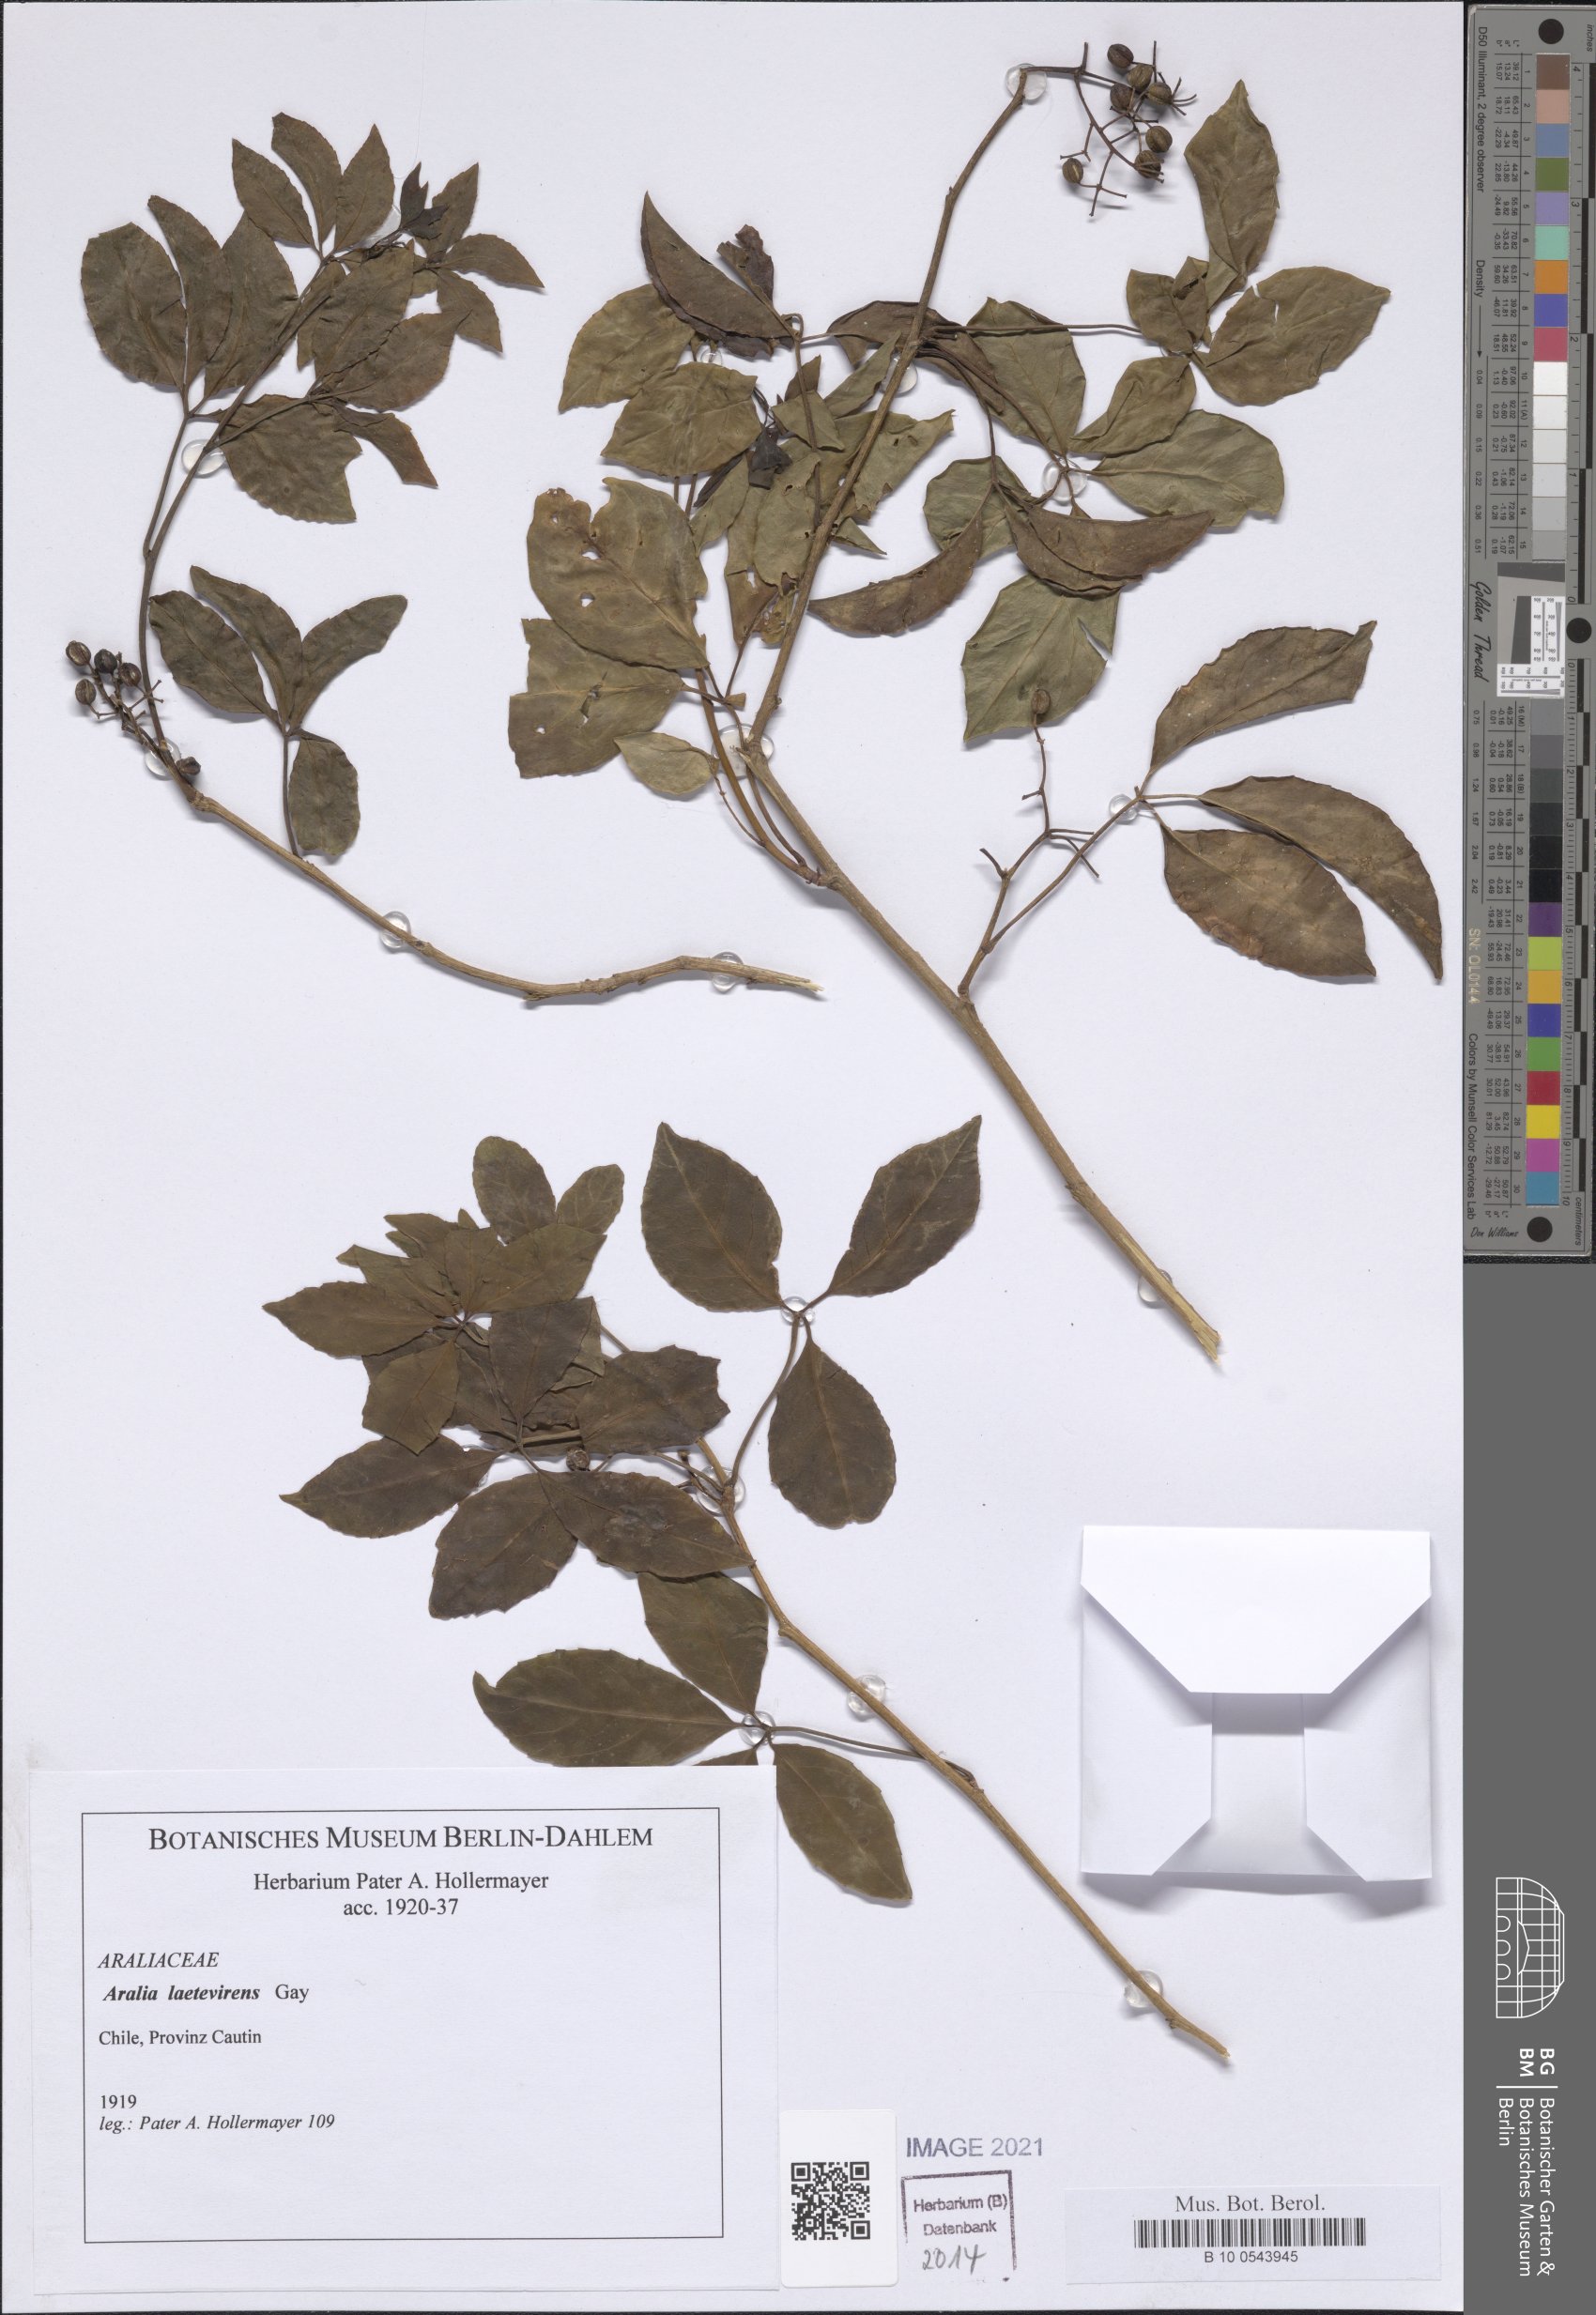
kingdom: Plantae
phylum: Tracheophyta
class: Magnoliopsida
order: Apiales
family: Araliaceae
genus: Raukaua
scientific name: Raukaua laetevirens
